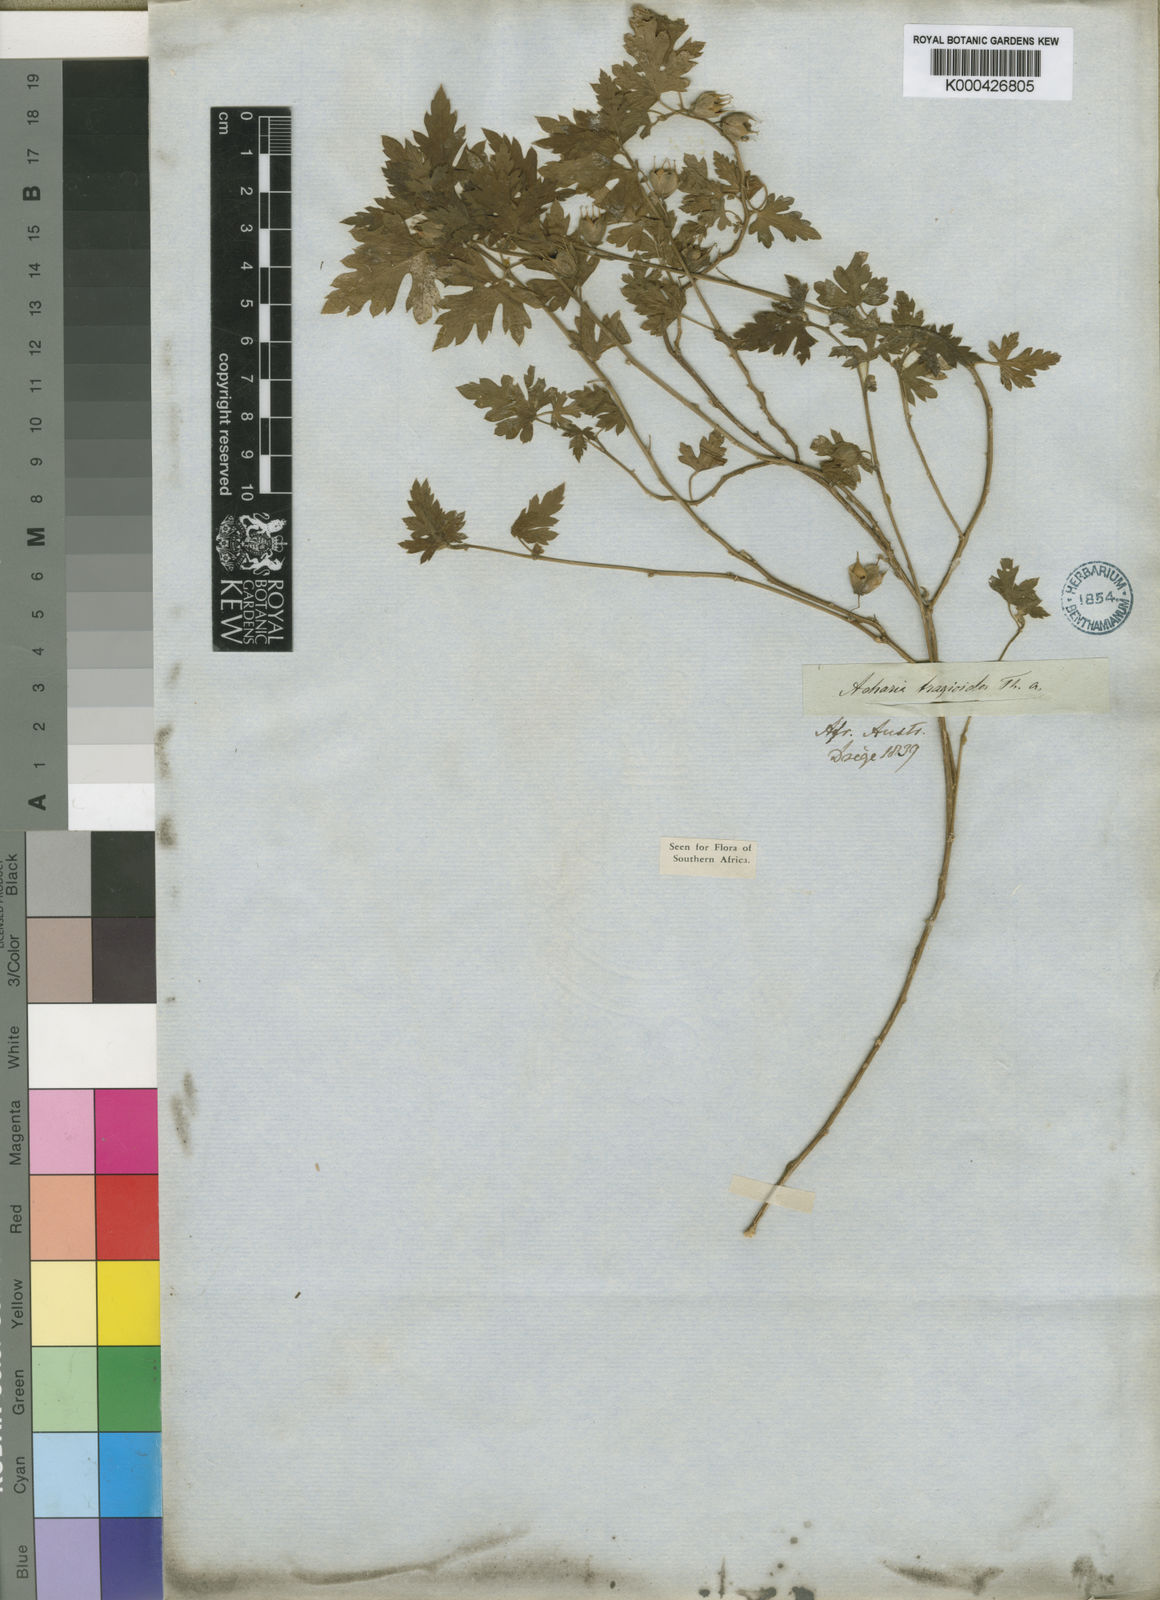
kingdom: Plantae
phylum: Tracheophyta
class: Magnoliopsida
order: Malpighiales
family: Achariaceae
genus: Acharia
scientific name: Acharia tragodes
